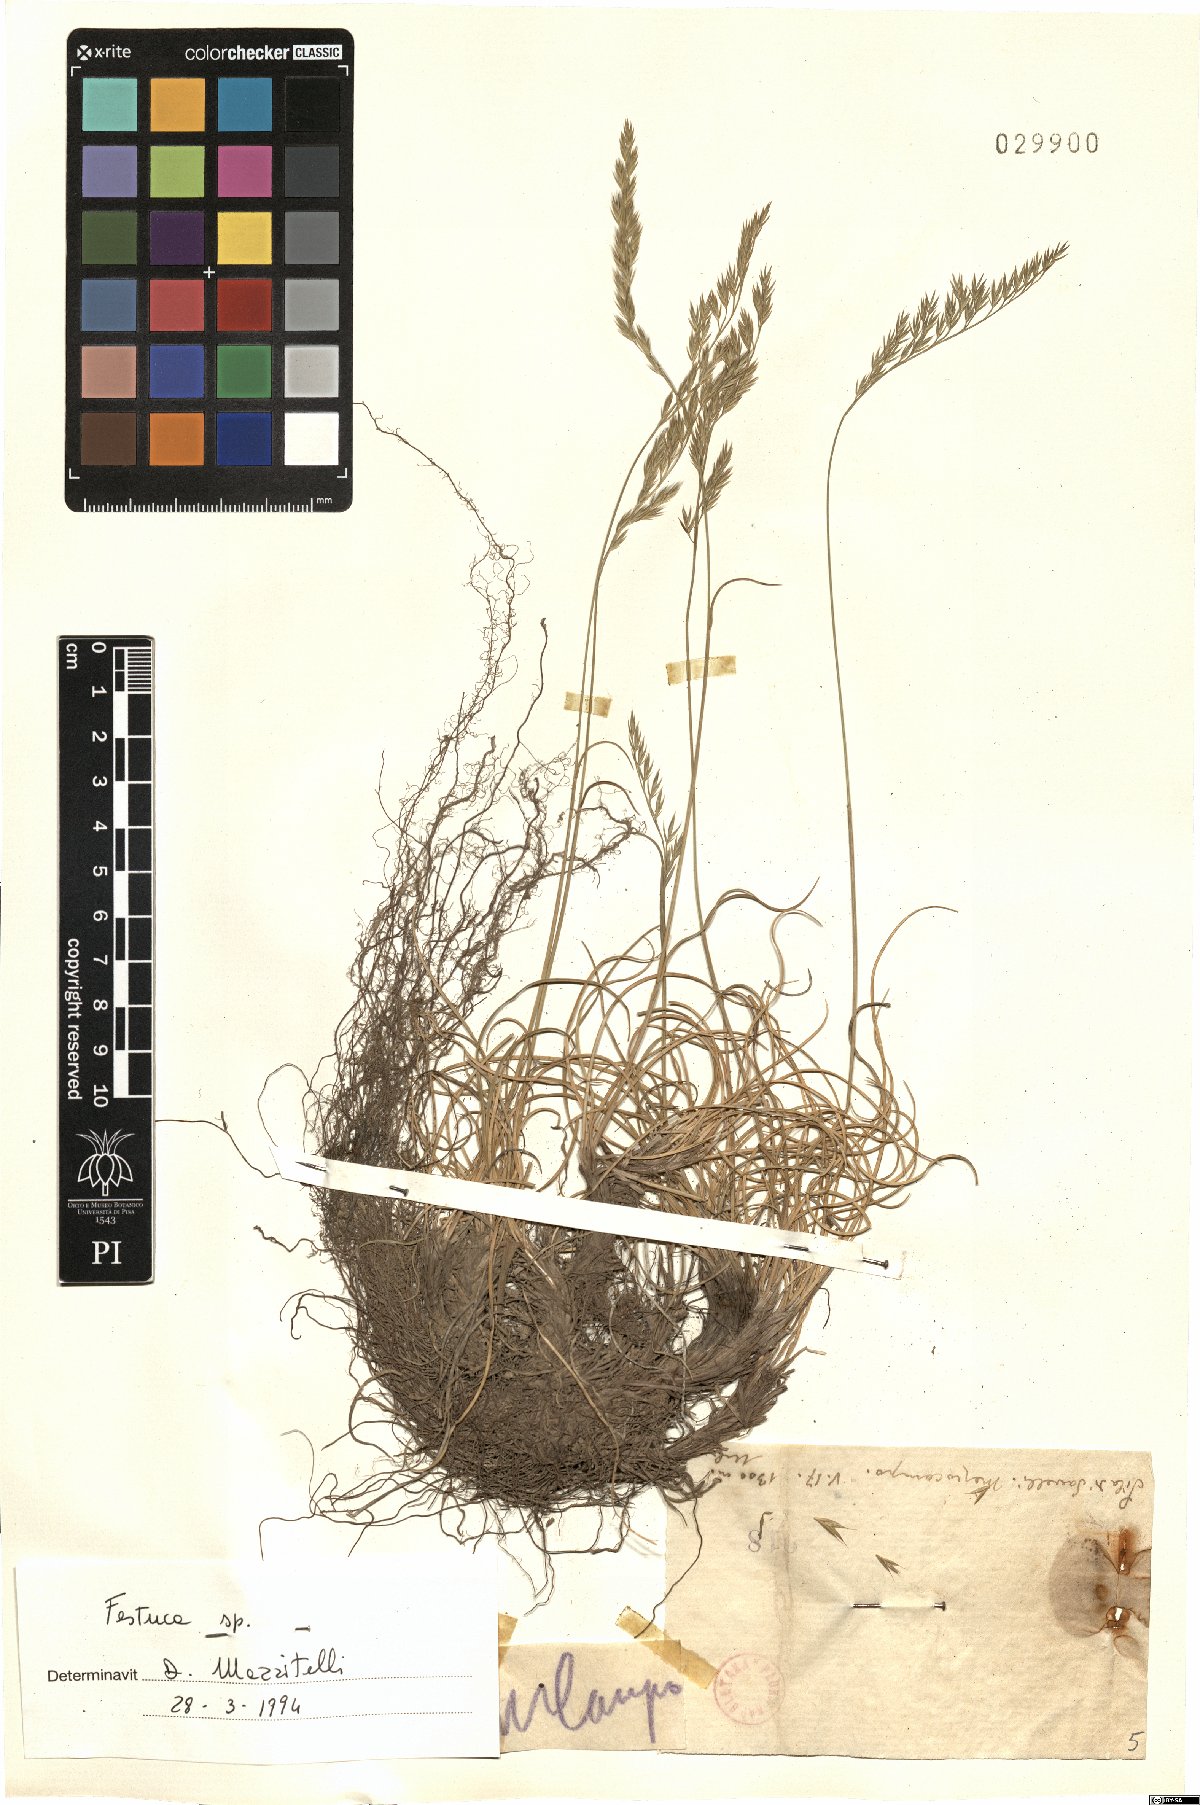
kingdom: Plantae
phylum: Tracheophyta
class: Liliopsida
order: Poales
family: Poaceae
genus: Festuca
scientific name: Festuca
